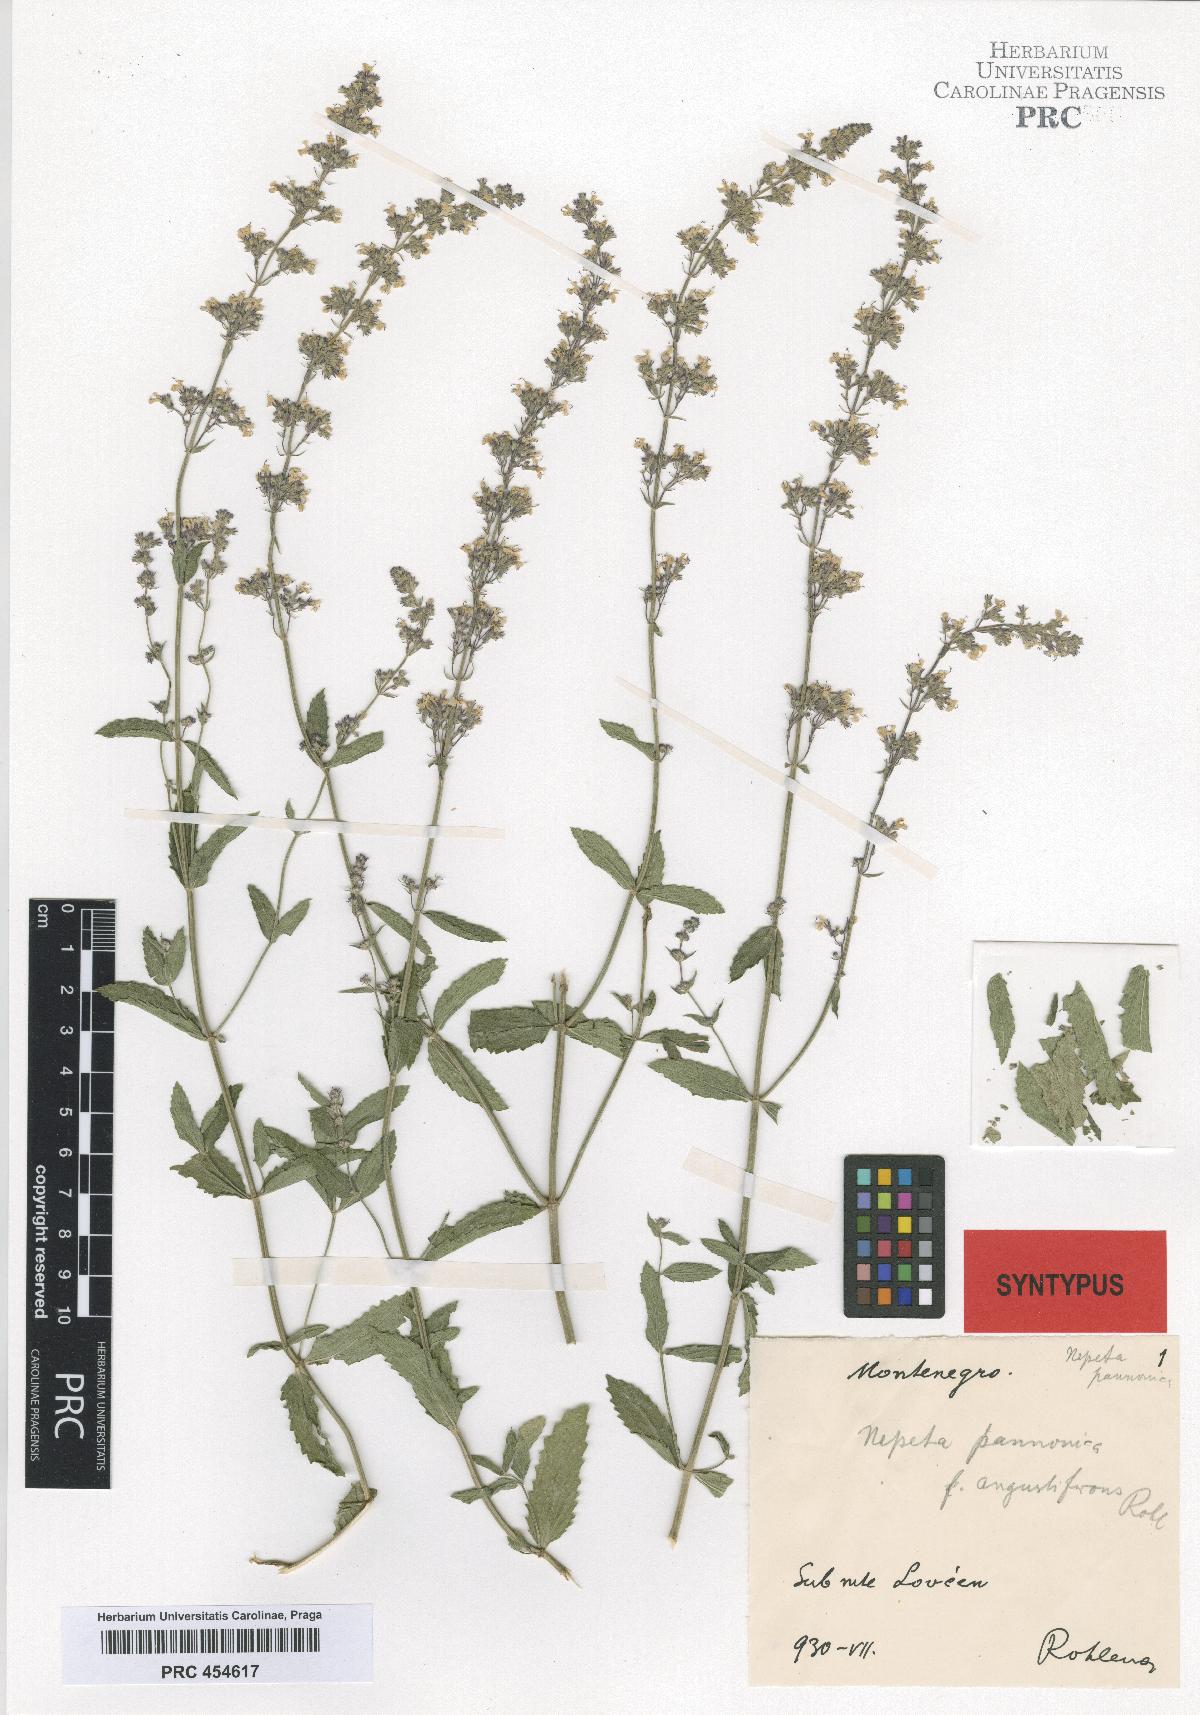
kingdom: Plantae
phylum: Tracheophyta
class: Magnoliopsida
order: Lamiales
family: Lamiaceae
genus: Nepeta
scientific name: Nepeta nuda
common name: Hairless catmint
